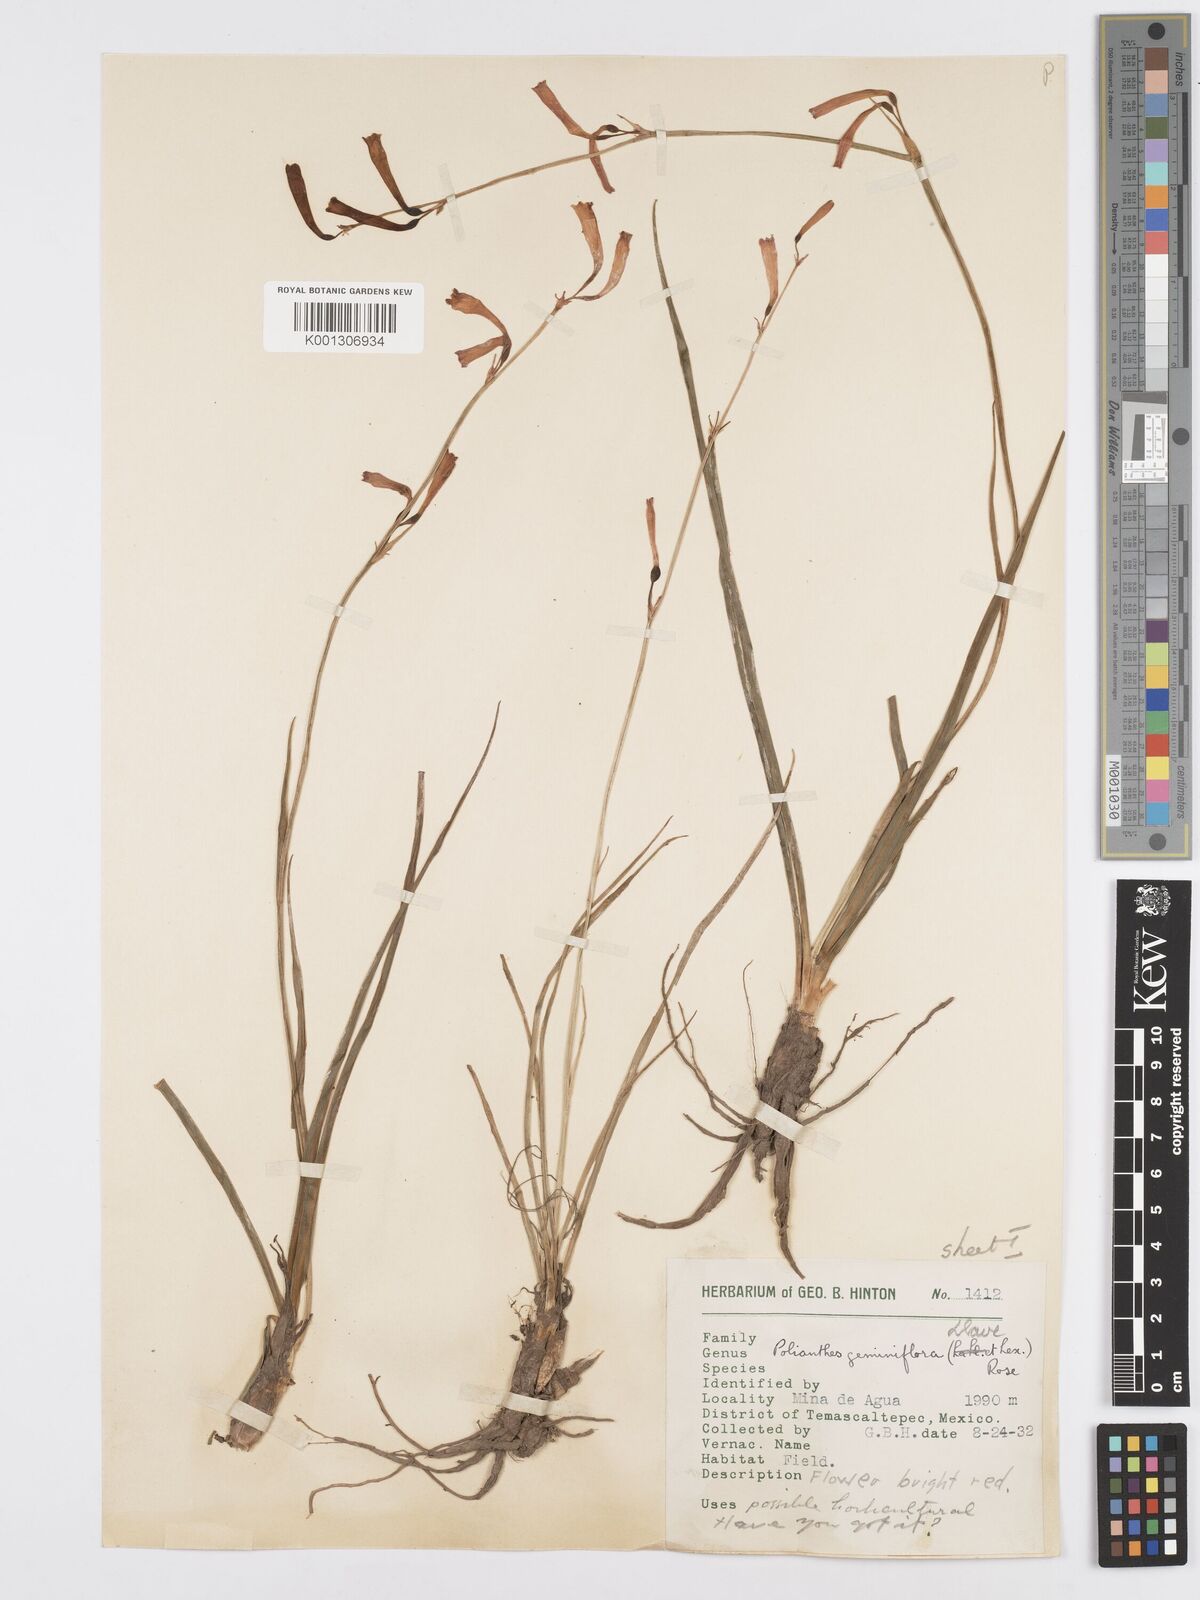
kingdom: Plantae
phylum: Tracheophyta
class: Liliopsida
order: Asparagales
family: Asparagaceae
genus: Agave
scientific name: Agave coetocapnia
